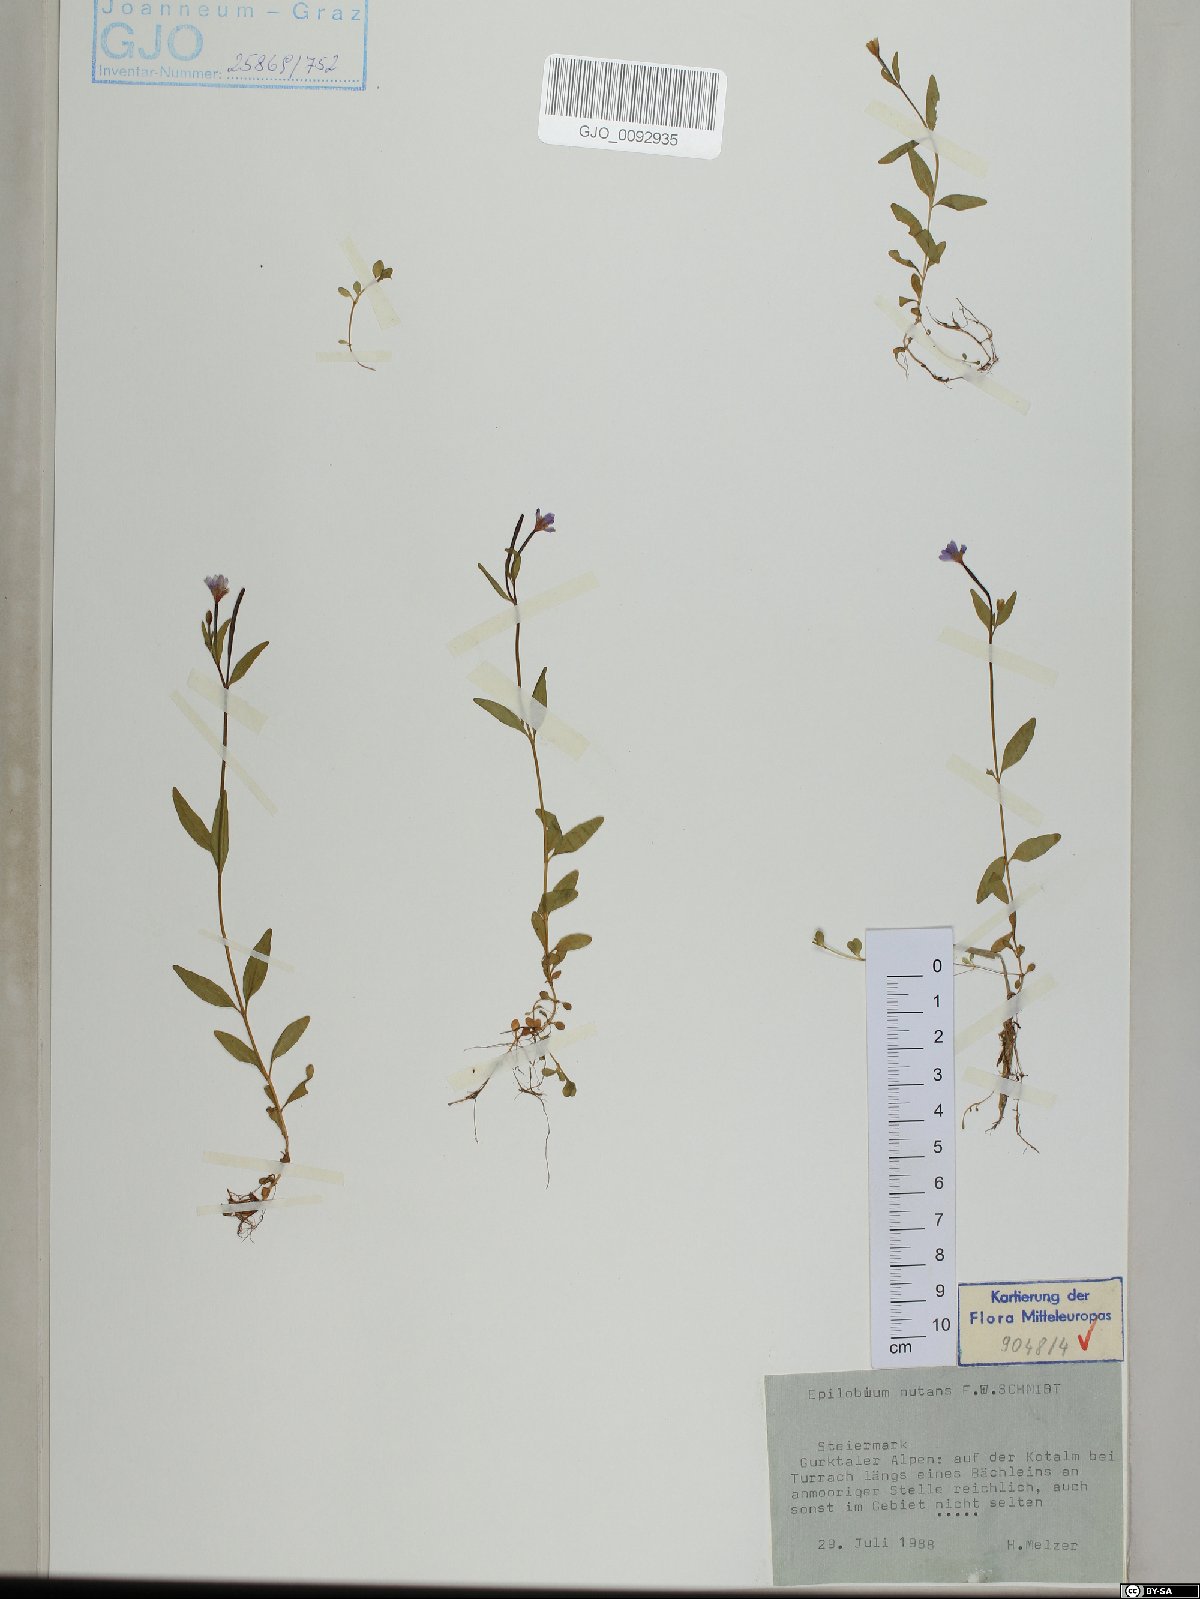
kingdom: Plantae
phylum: Tracheophyta
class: Magnoliopsida
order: Myrtales
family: Onagraceae
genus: Epilobium
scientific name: Epilobium nutans
